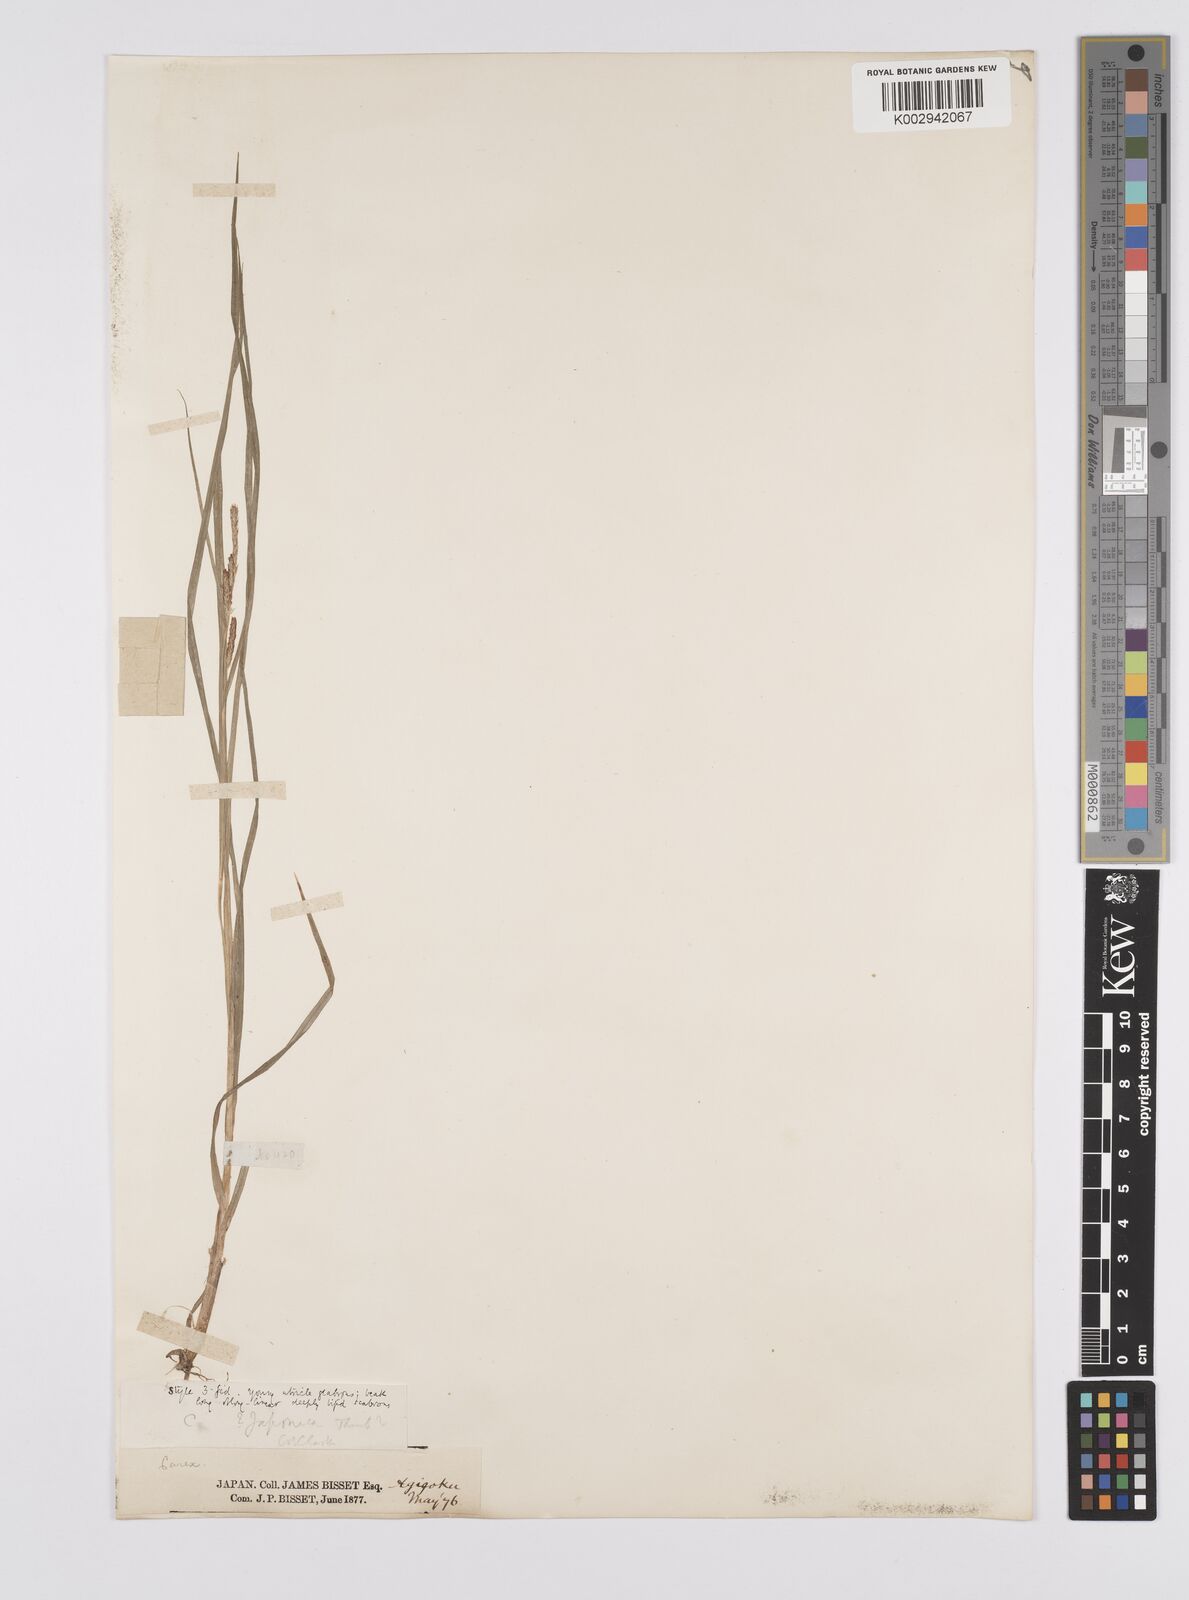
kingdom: Plantae
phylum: Tracheophyta
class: Liliopsida
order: Poales
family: Cyperaceae
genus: Carex
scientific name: Carex japonica
